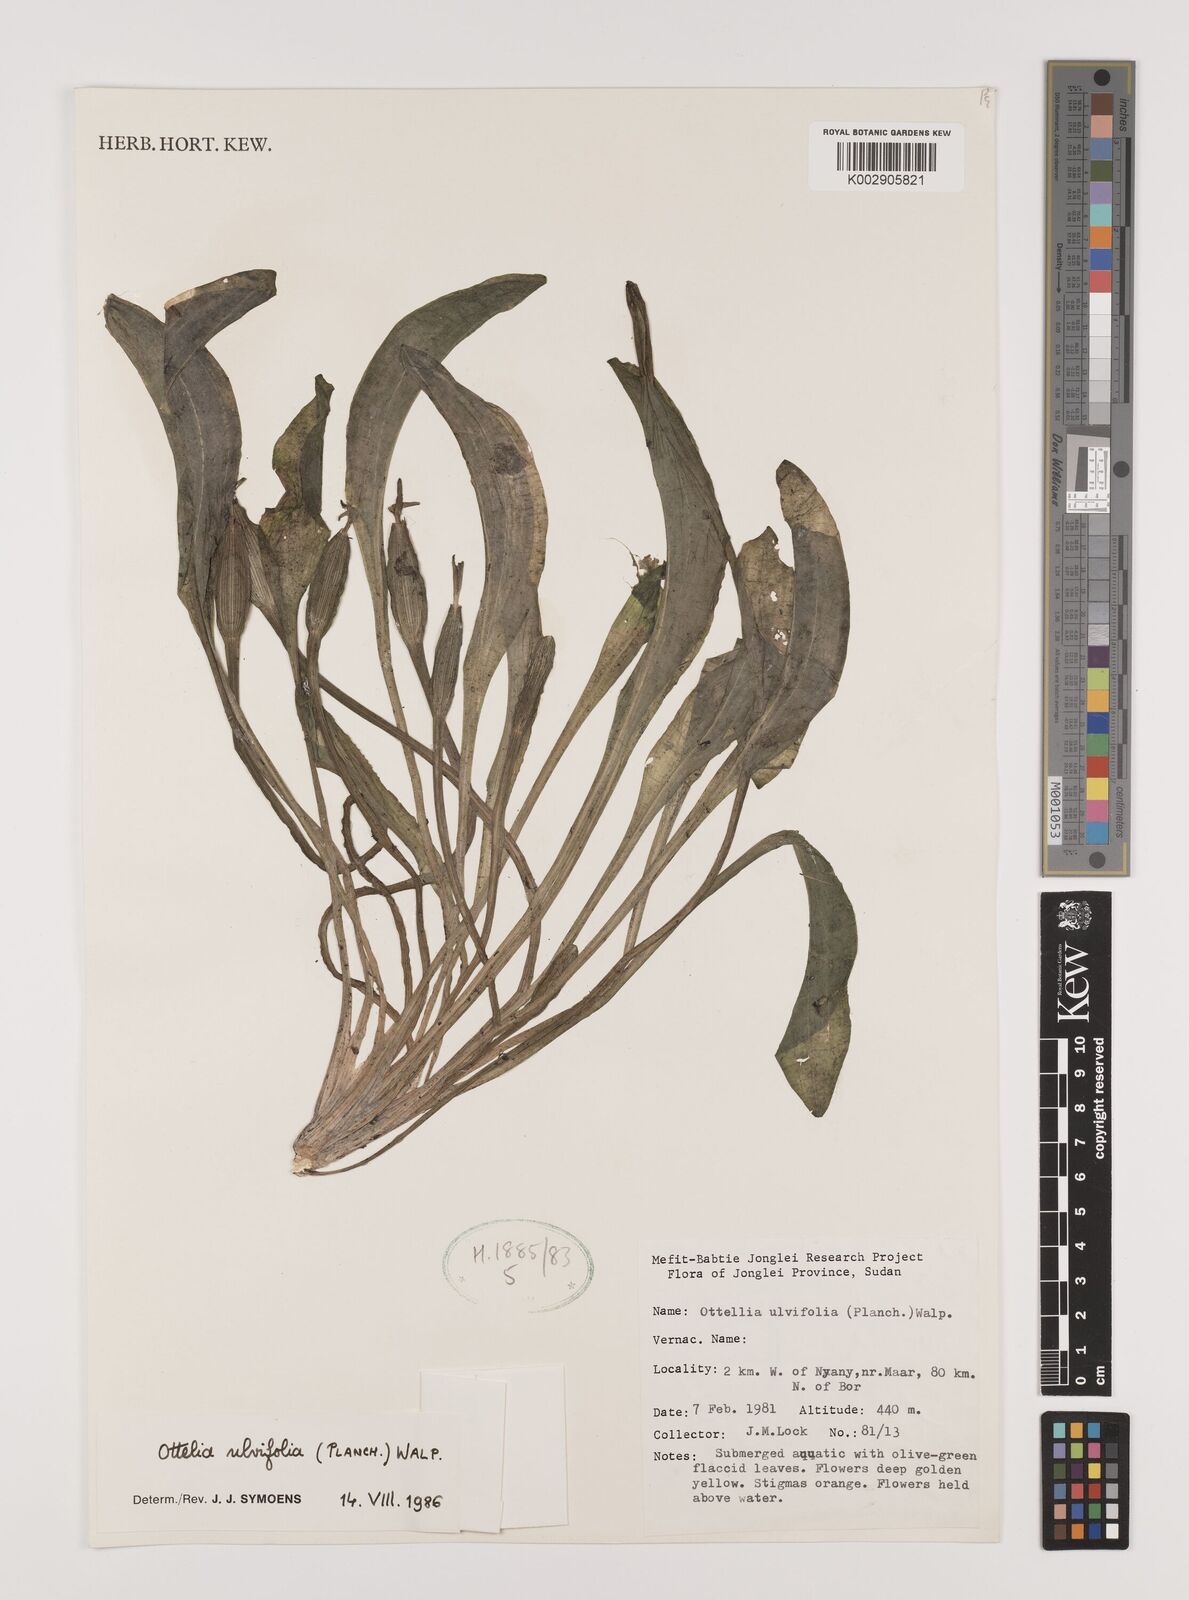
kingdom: Plantae
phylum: Tracheophyta
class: Liliopsida
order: Alismatales
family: Hydrocharitaceae
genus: Ottelia
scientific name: Ottelia ulvifolia
